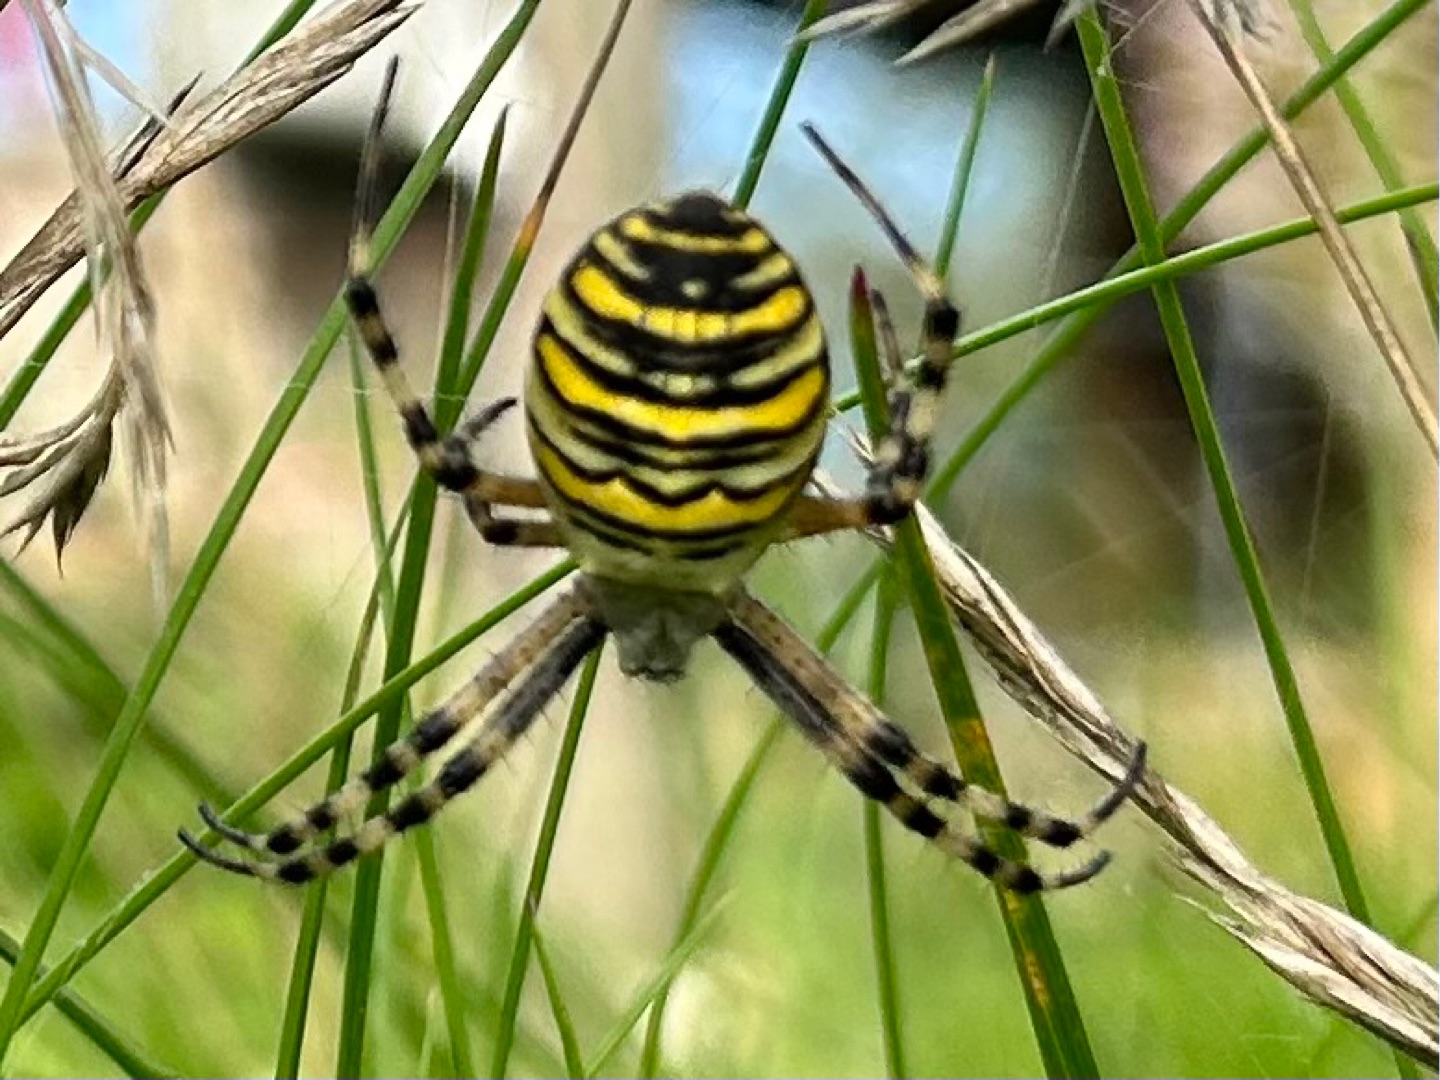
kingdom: Animalia
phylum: Arthropoda
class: Arachnida
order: Araneae
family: Araneidae
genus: Argiope
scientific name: Argiope bruennichi
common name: Hvepseedderkop
